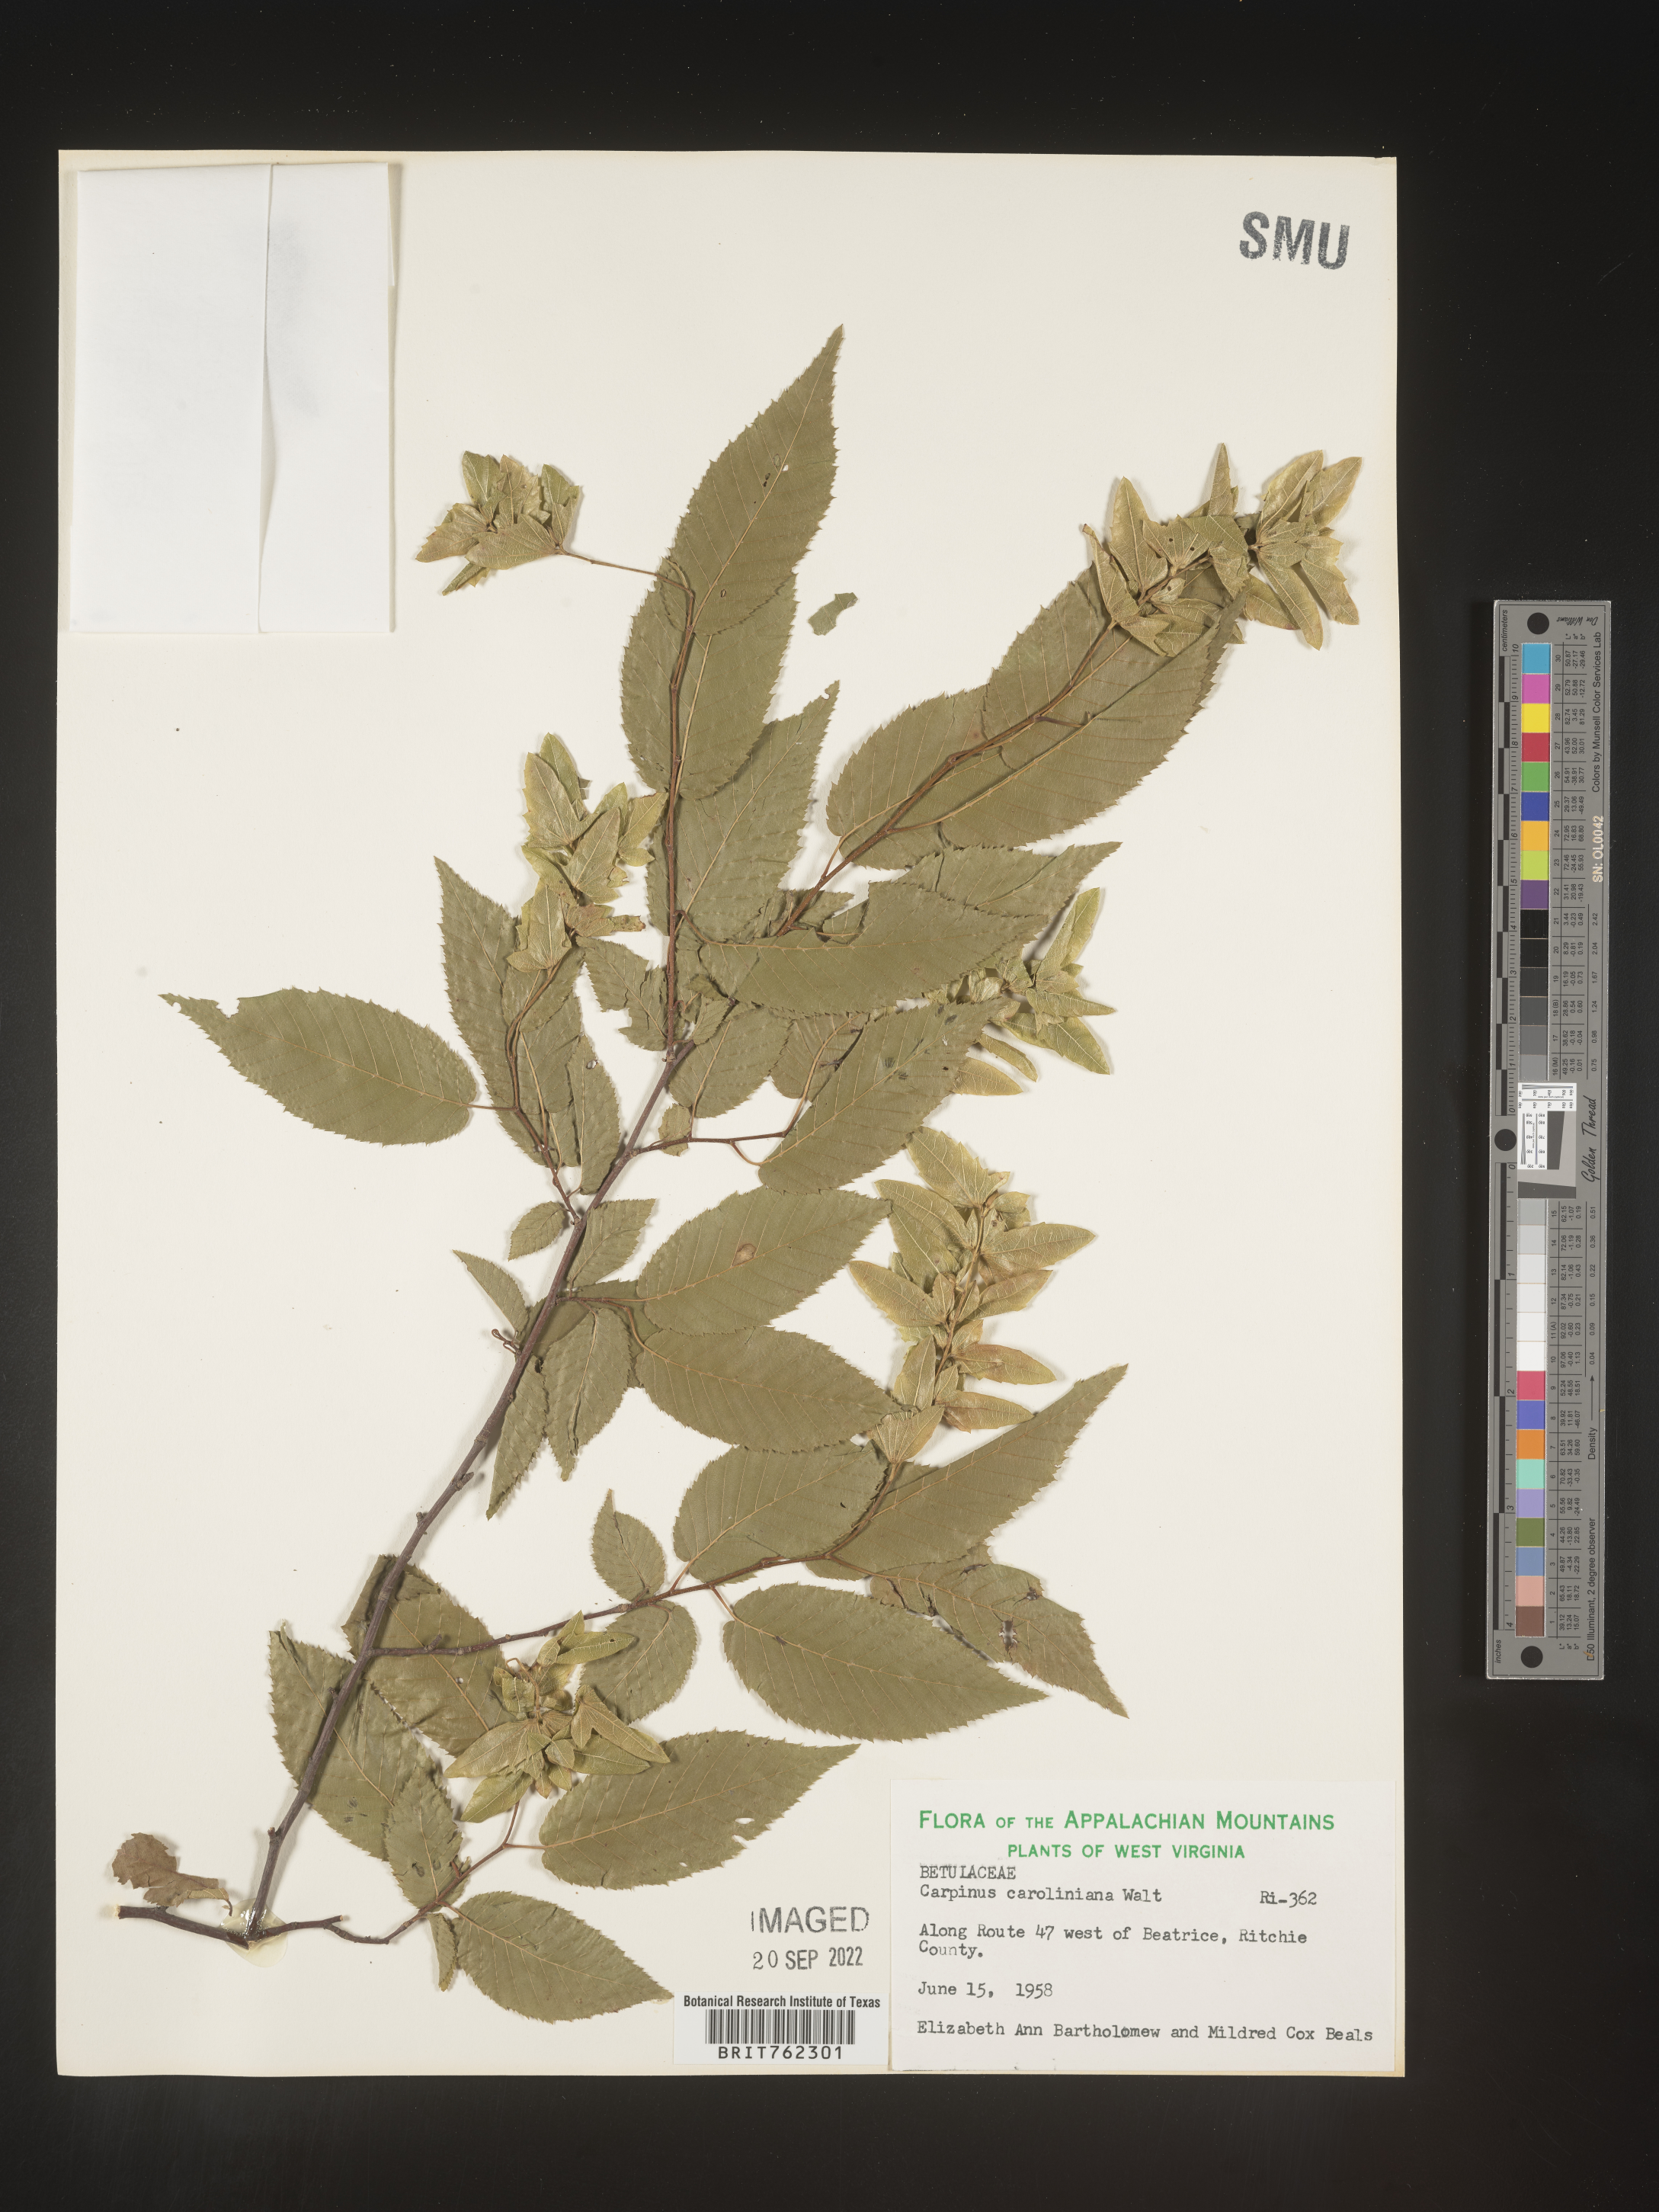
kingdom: Plantae
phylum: Tracheophyta
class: Magnoliopsida
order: Fagales
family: Betulaceae
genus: Carpinus
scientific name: Carpinus caroliniana
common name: American hornbeam
